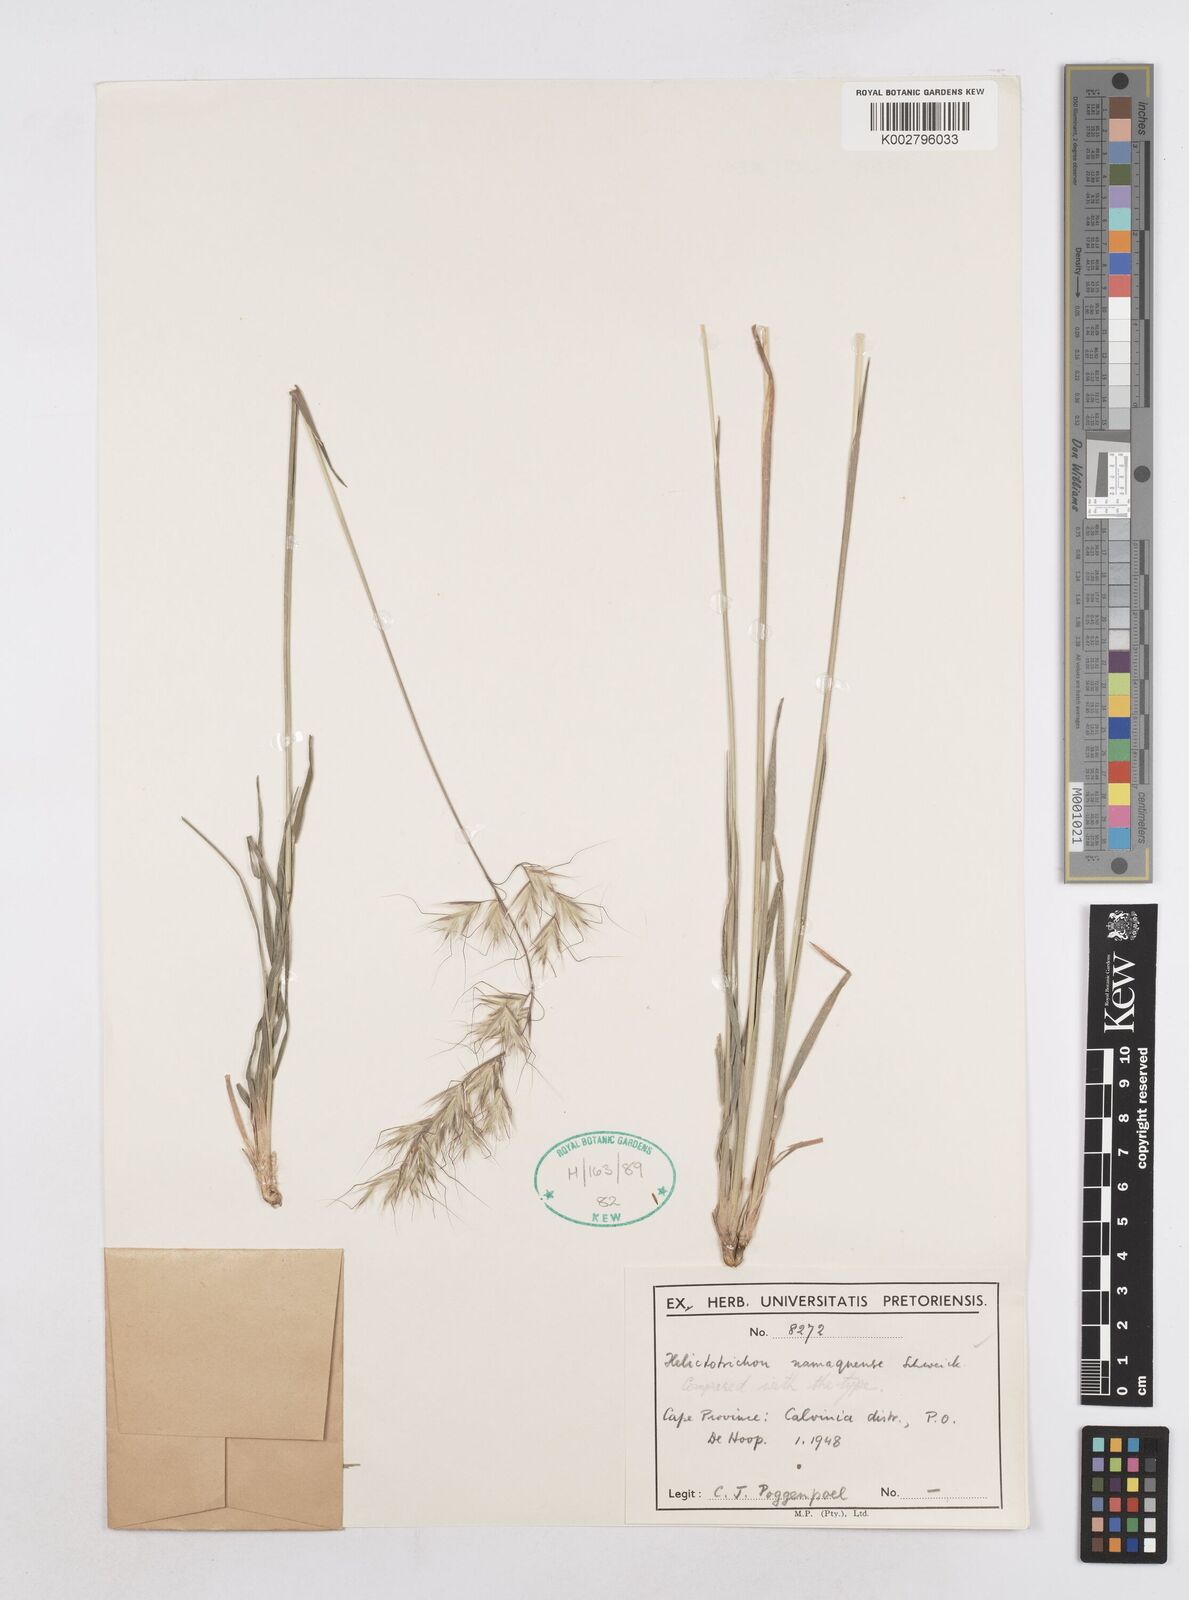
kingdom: Plantae
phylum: Tracheophyta
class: Liliopsida
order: Poales
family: Poaceae
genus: Trisetopsis
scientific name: Trisetopsis namaquensis
